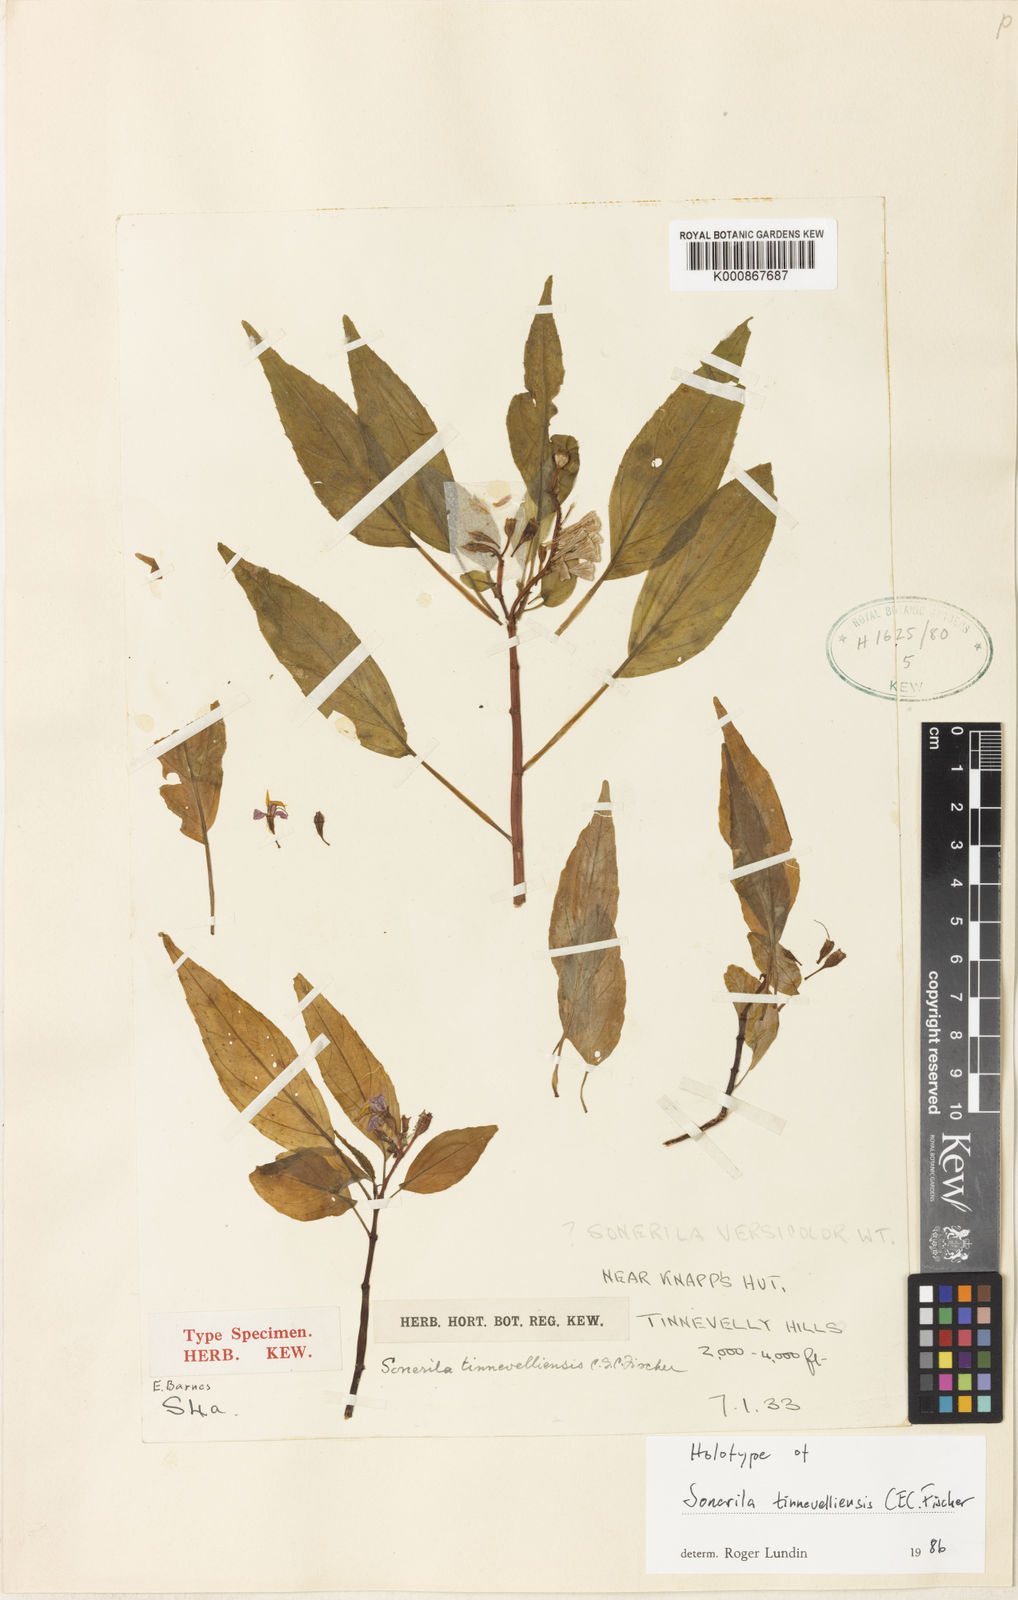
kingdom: Plantae
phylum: Tracheophyta
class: Magnoliopsida
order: Myrtales
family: Melastomataceae
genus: Sonerila
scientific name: Sonerila tinnevelliensis
